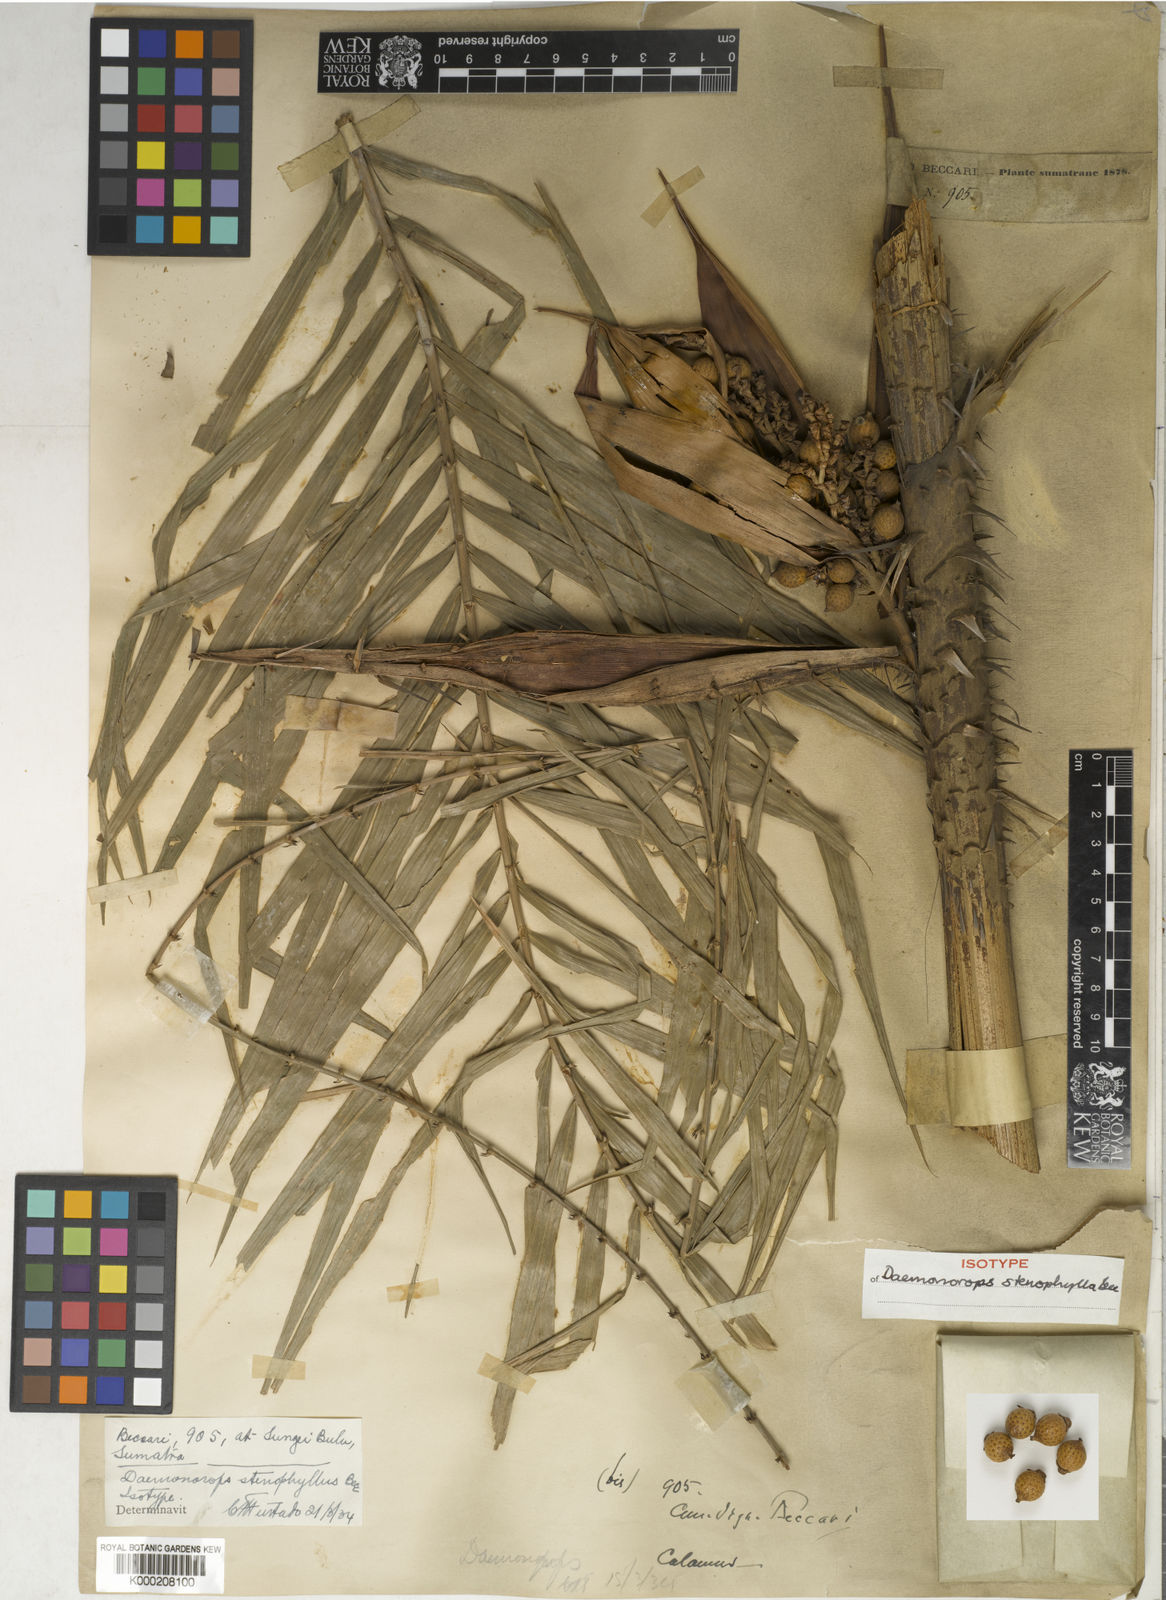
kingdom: Plantae
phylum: Tracheophyta
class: Liliopsida
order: Arecales
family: Arecaceae
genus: Calamus
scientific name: Calamus melanochaetes
